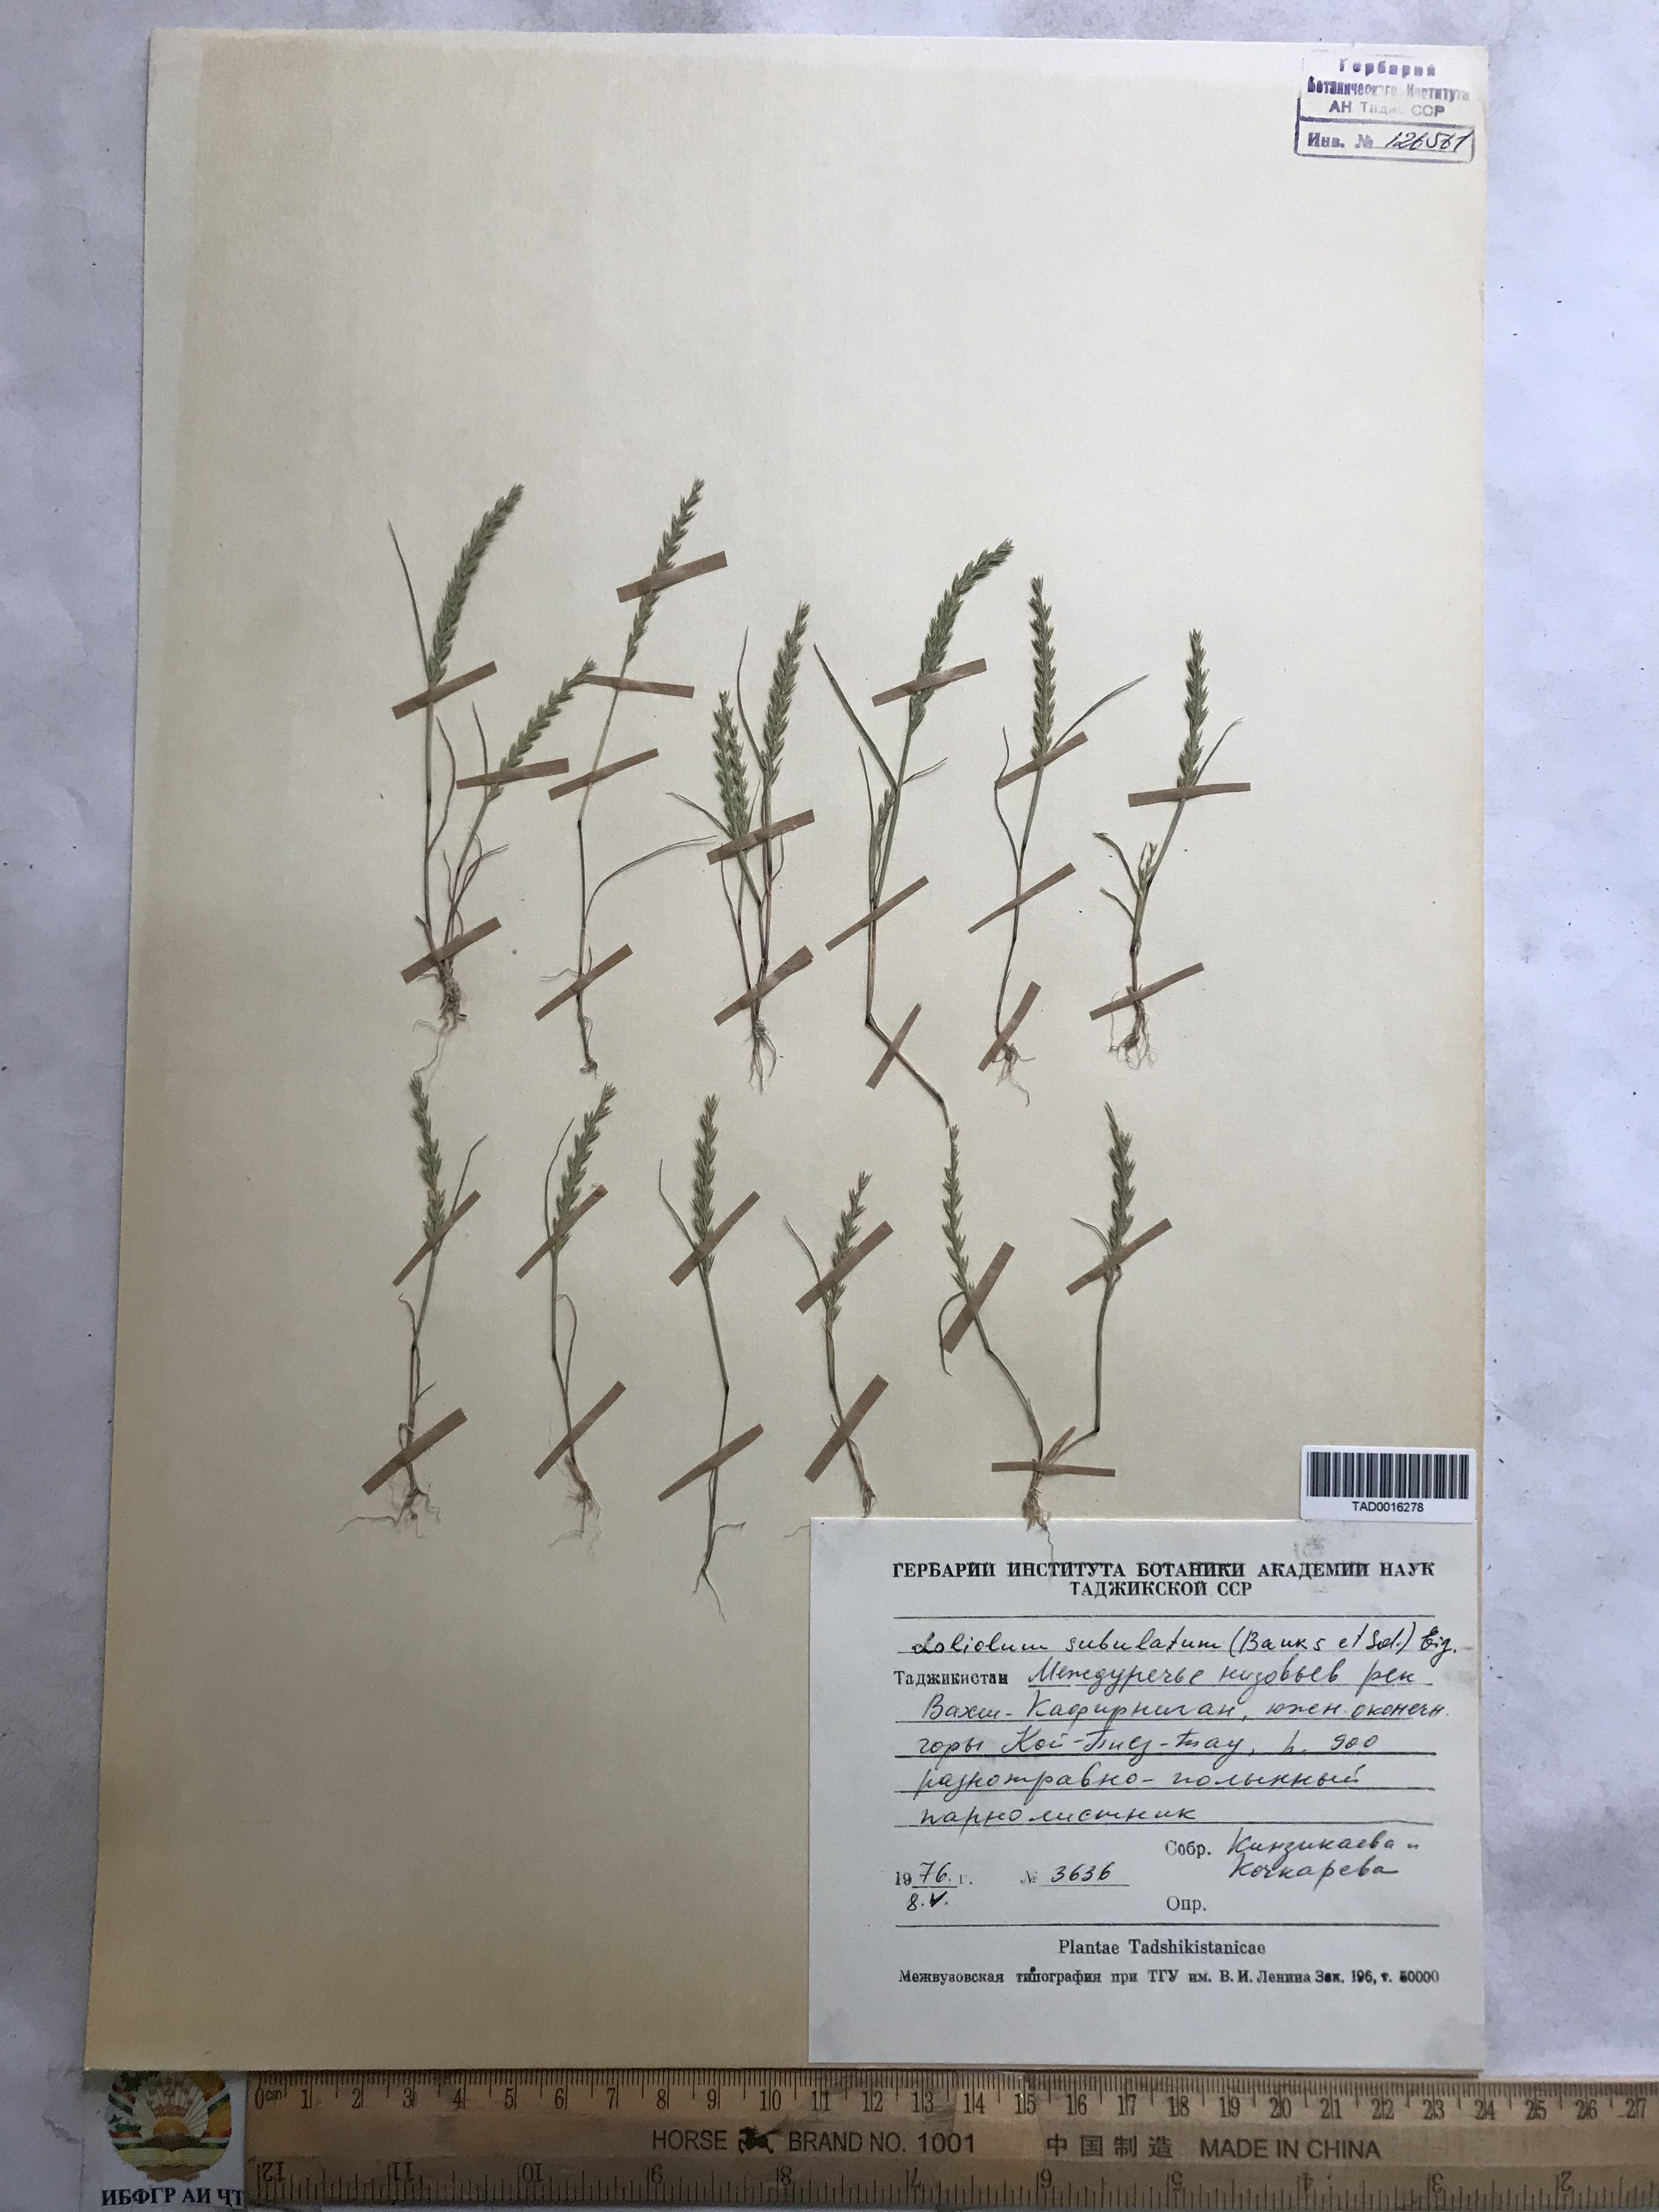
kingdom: Plantae
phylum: Tracheophyta
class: Liliopsida
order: Poales
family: Poaceae
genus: Festuca
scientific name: Festuca orientalis
